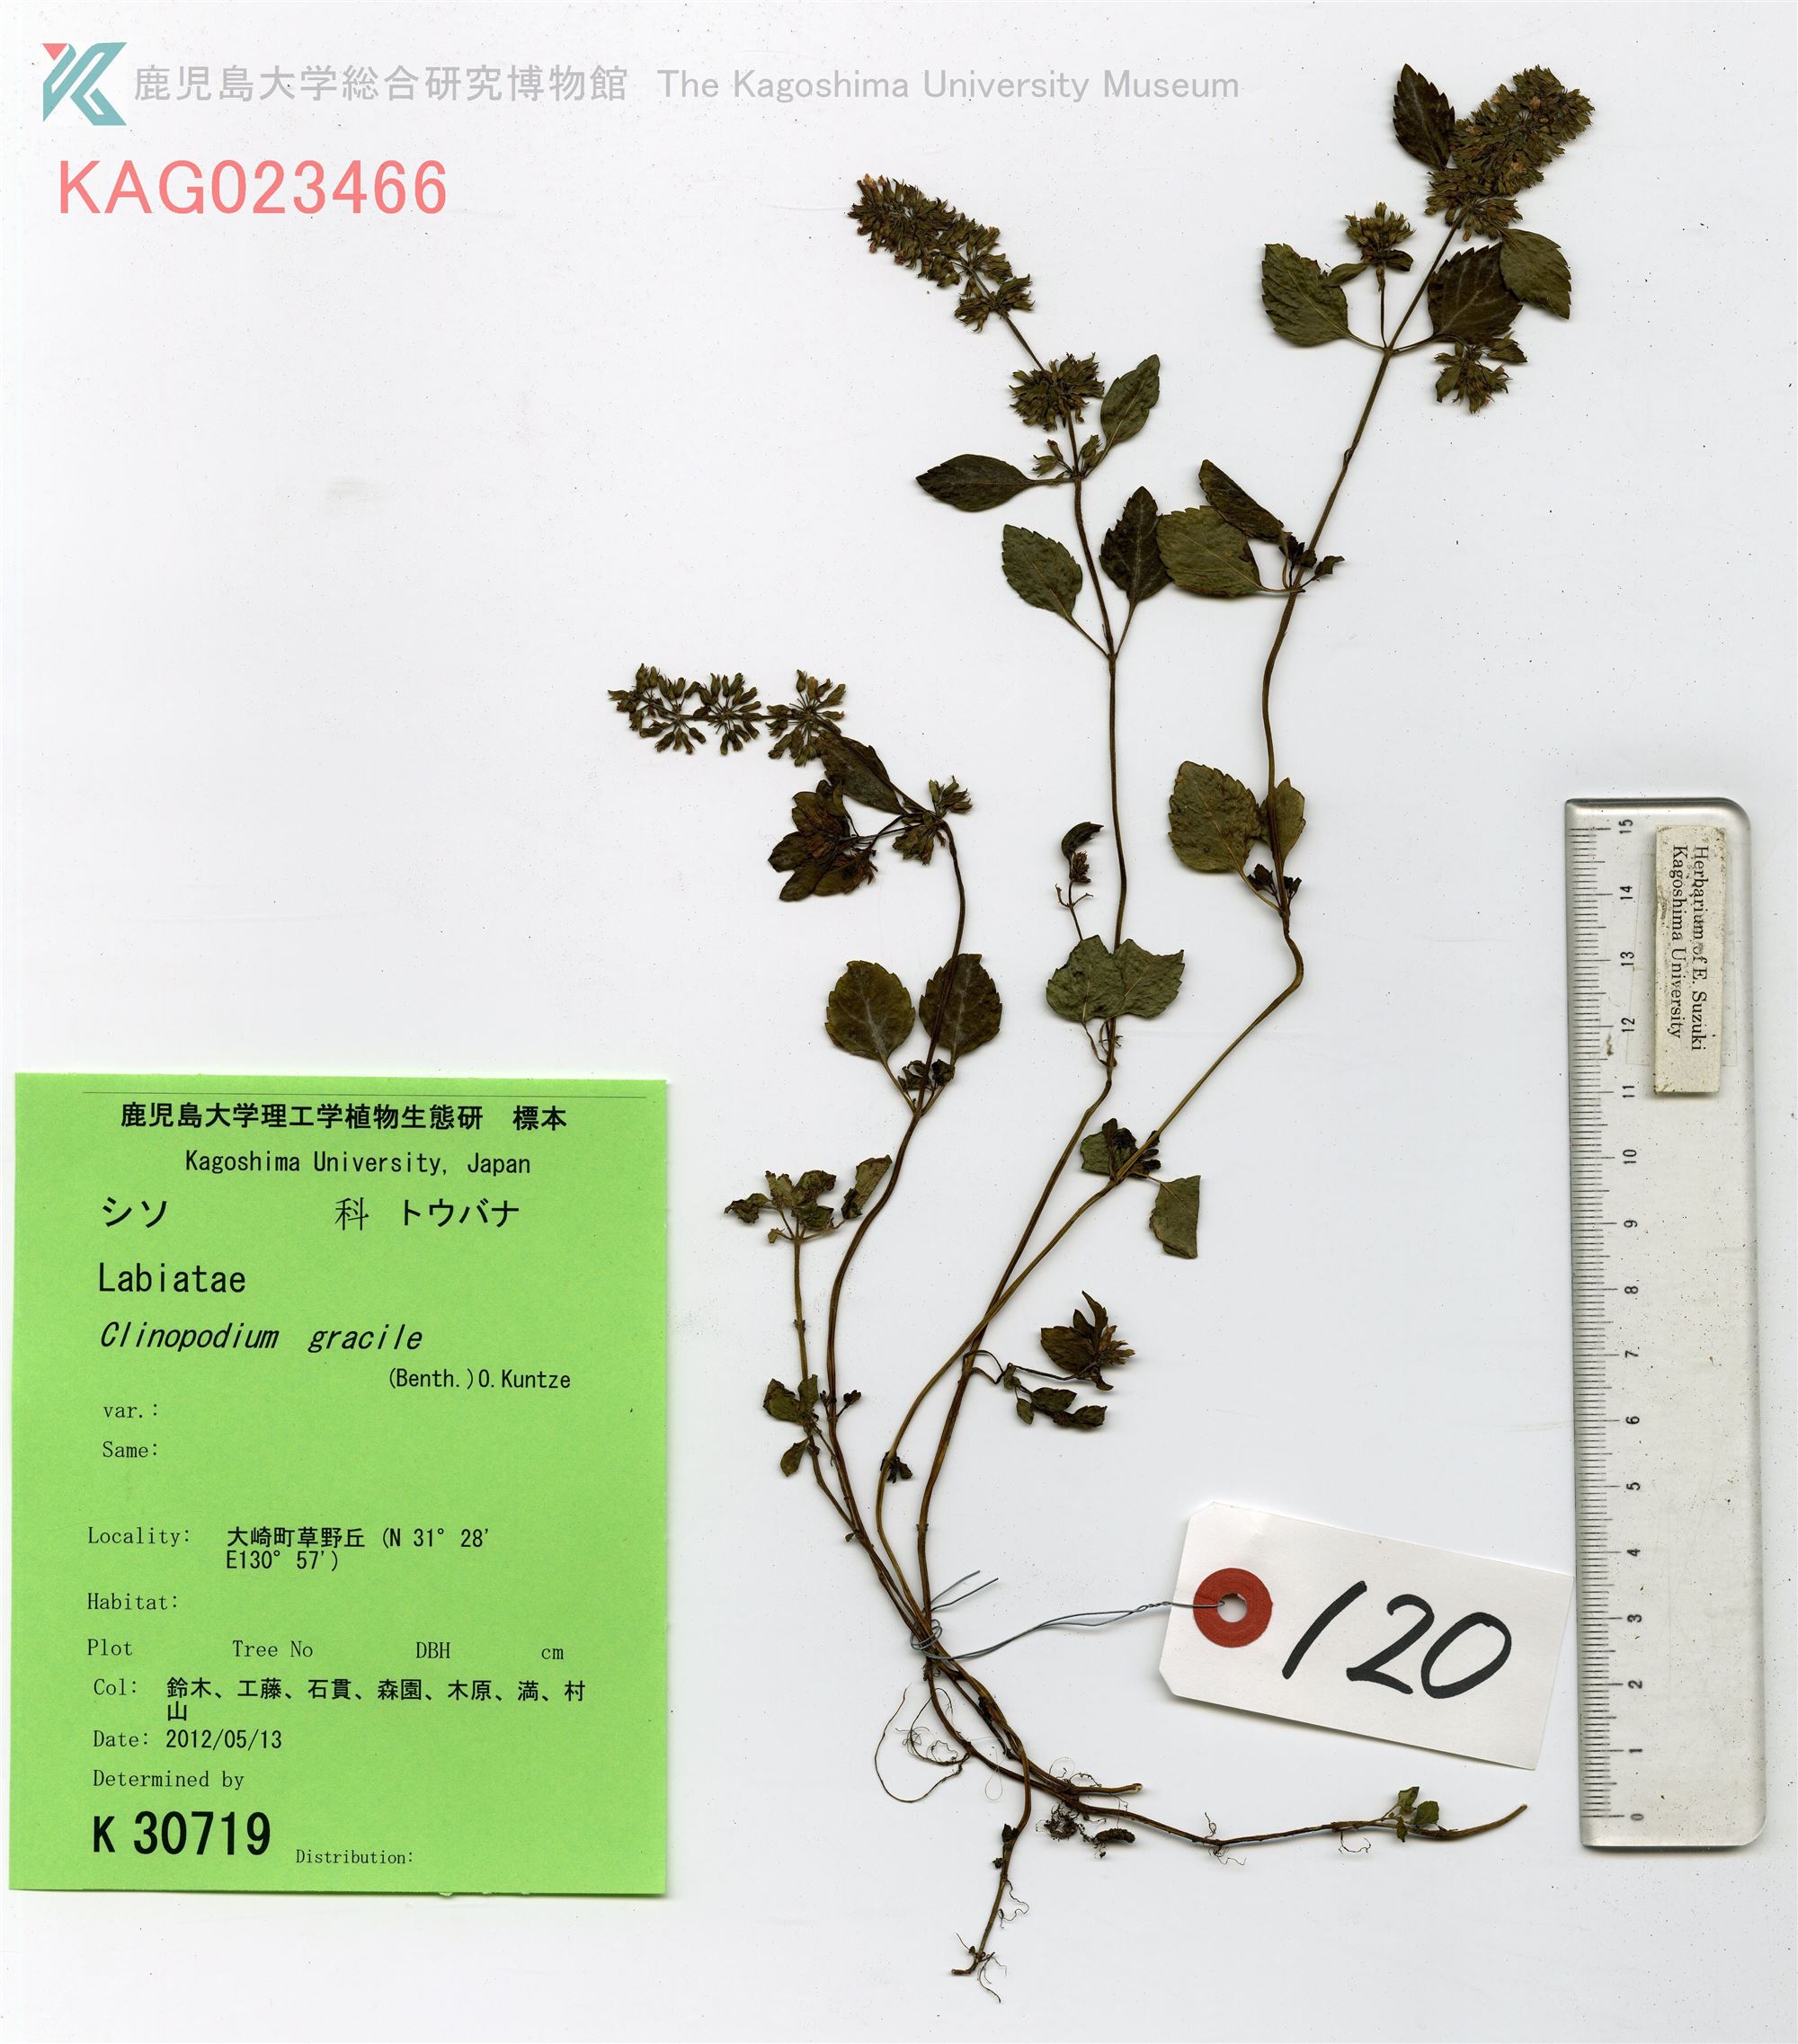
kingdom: Plantae
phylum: Tracheophyta
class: Magnoliopsida
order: Lamiales
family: Lamiaceae
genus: Clinopodium
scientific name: Clinopodium gracile
